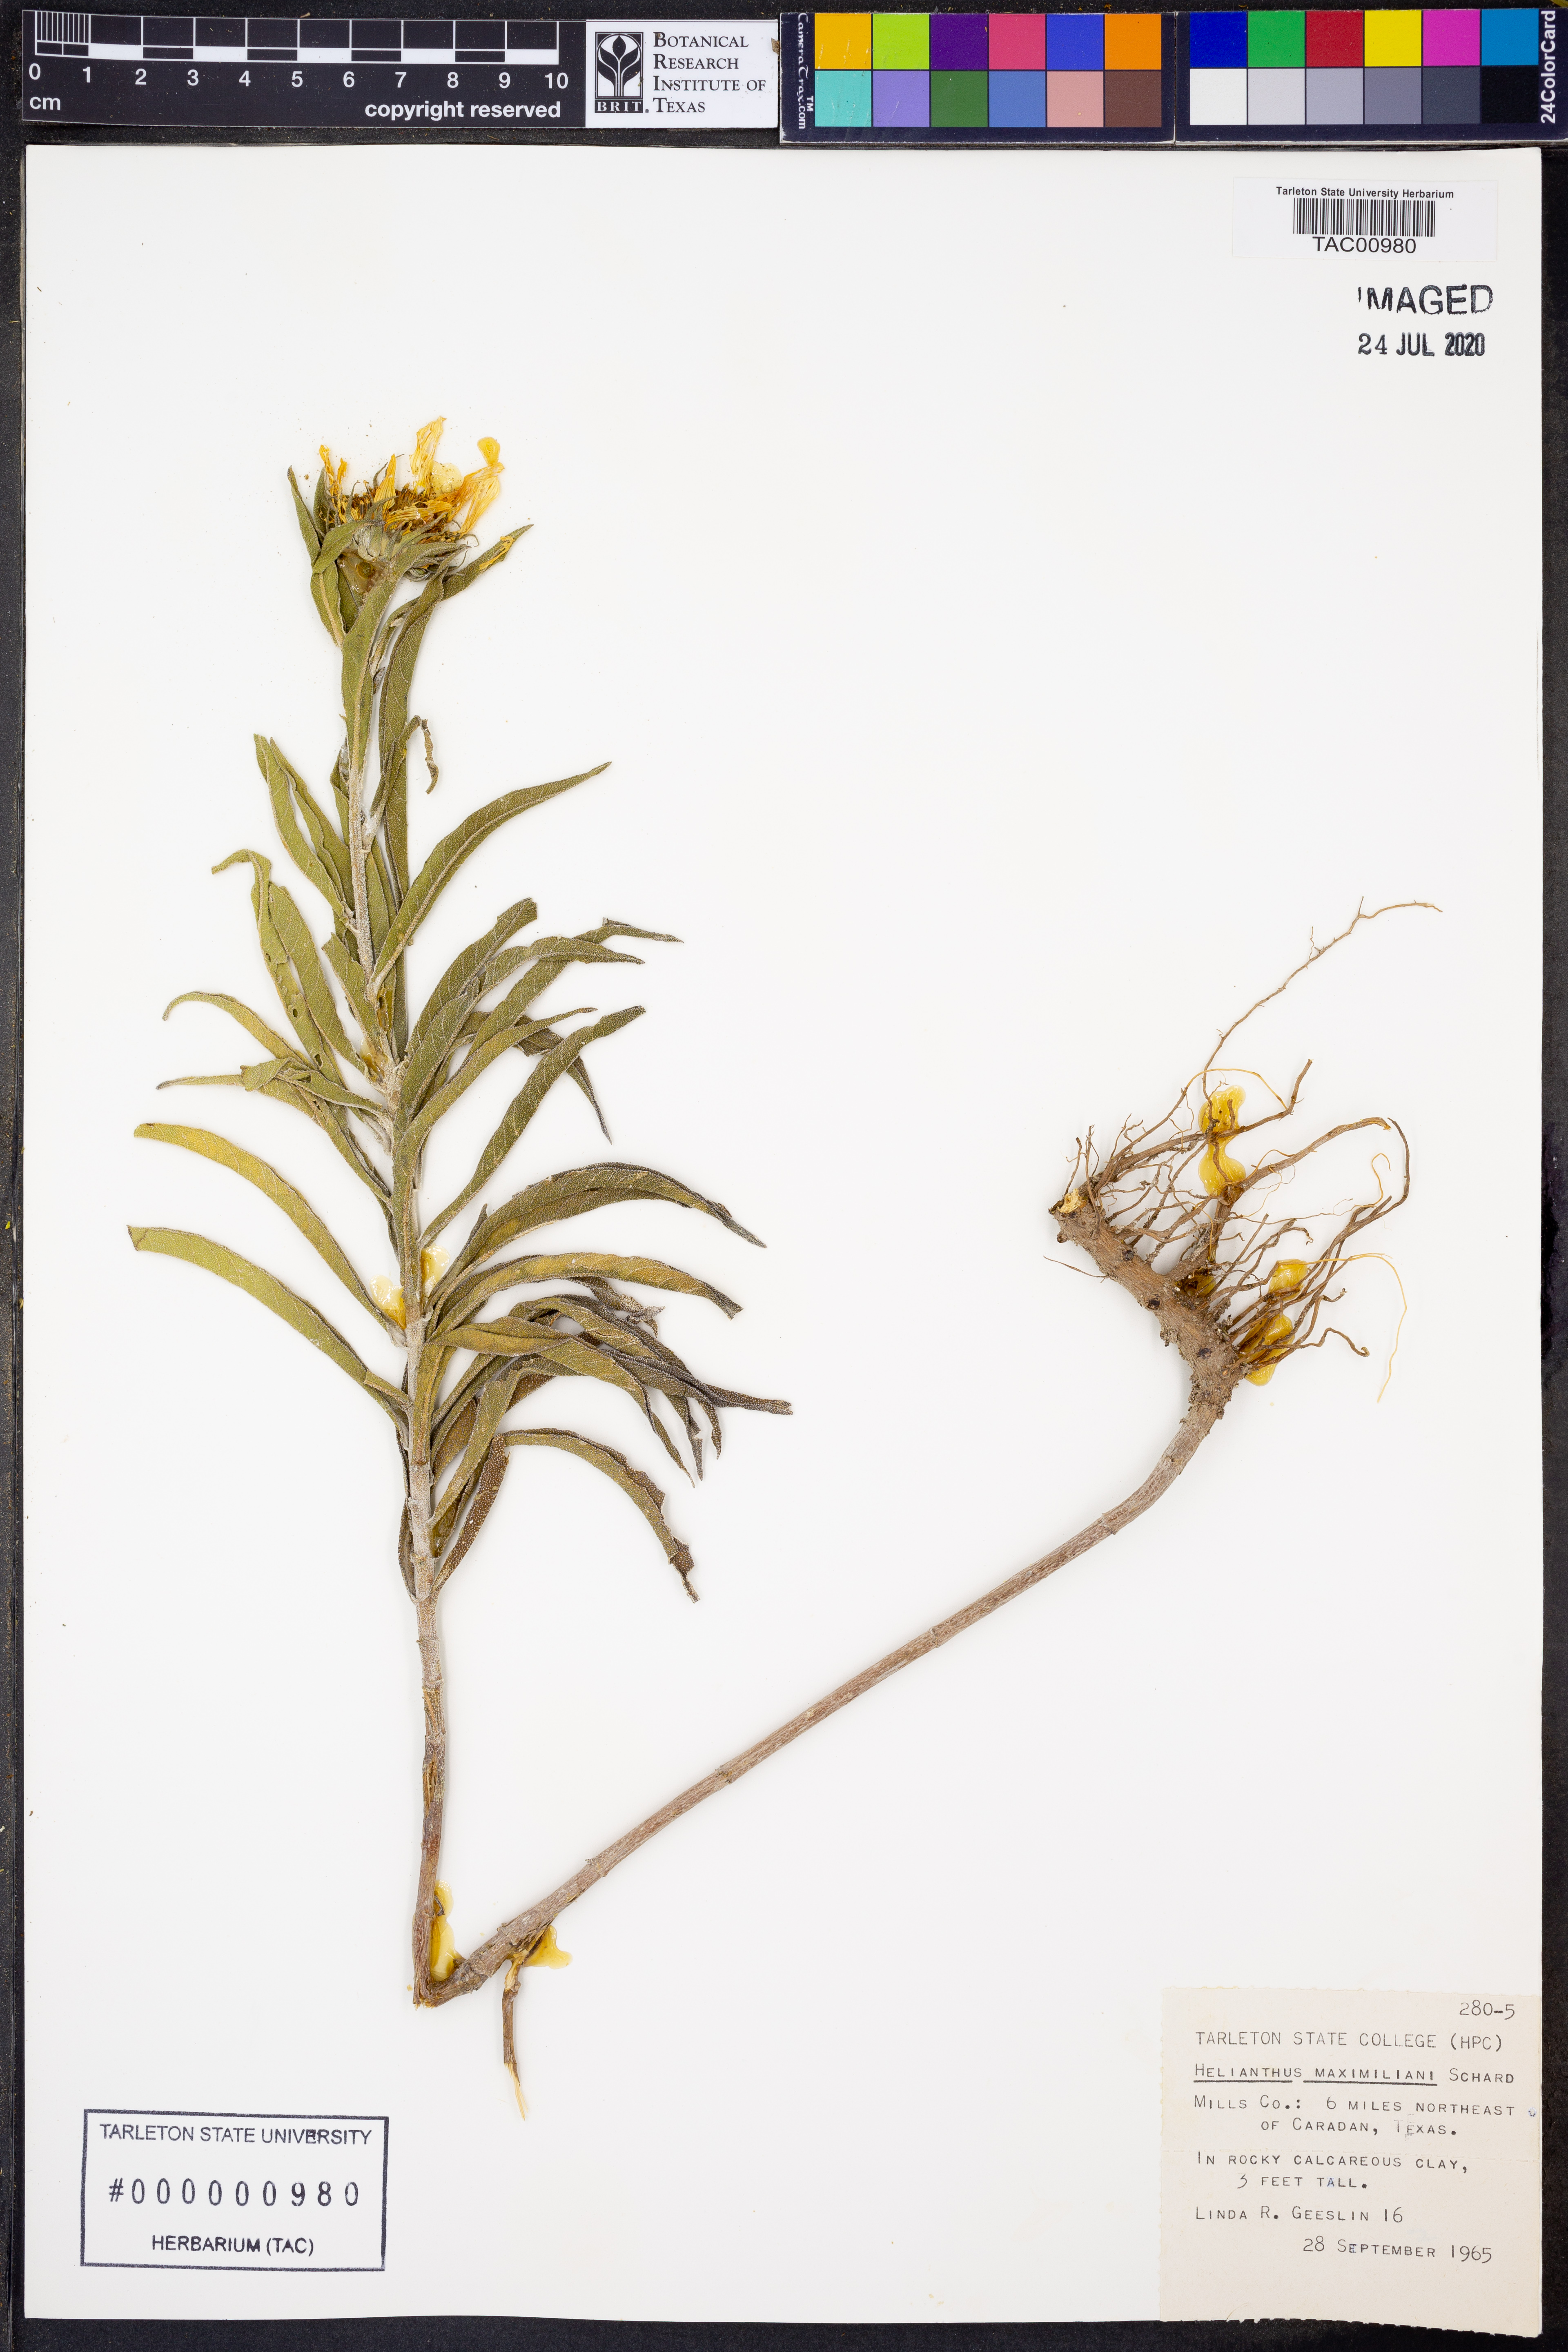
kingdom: Plantae
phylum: Tracheophyta
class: Magnoliopsida
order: Asterales
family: Asteraceae
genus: Helianthus
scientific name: Helianthus maximiliani
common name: Maximilian's sunflower
